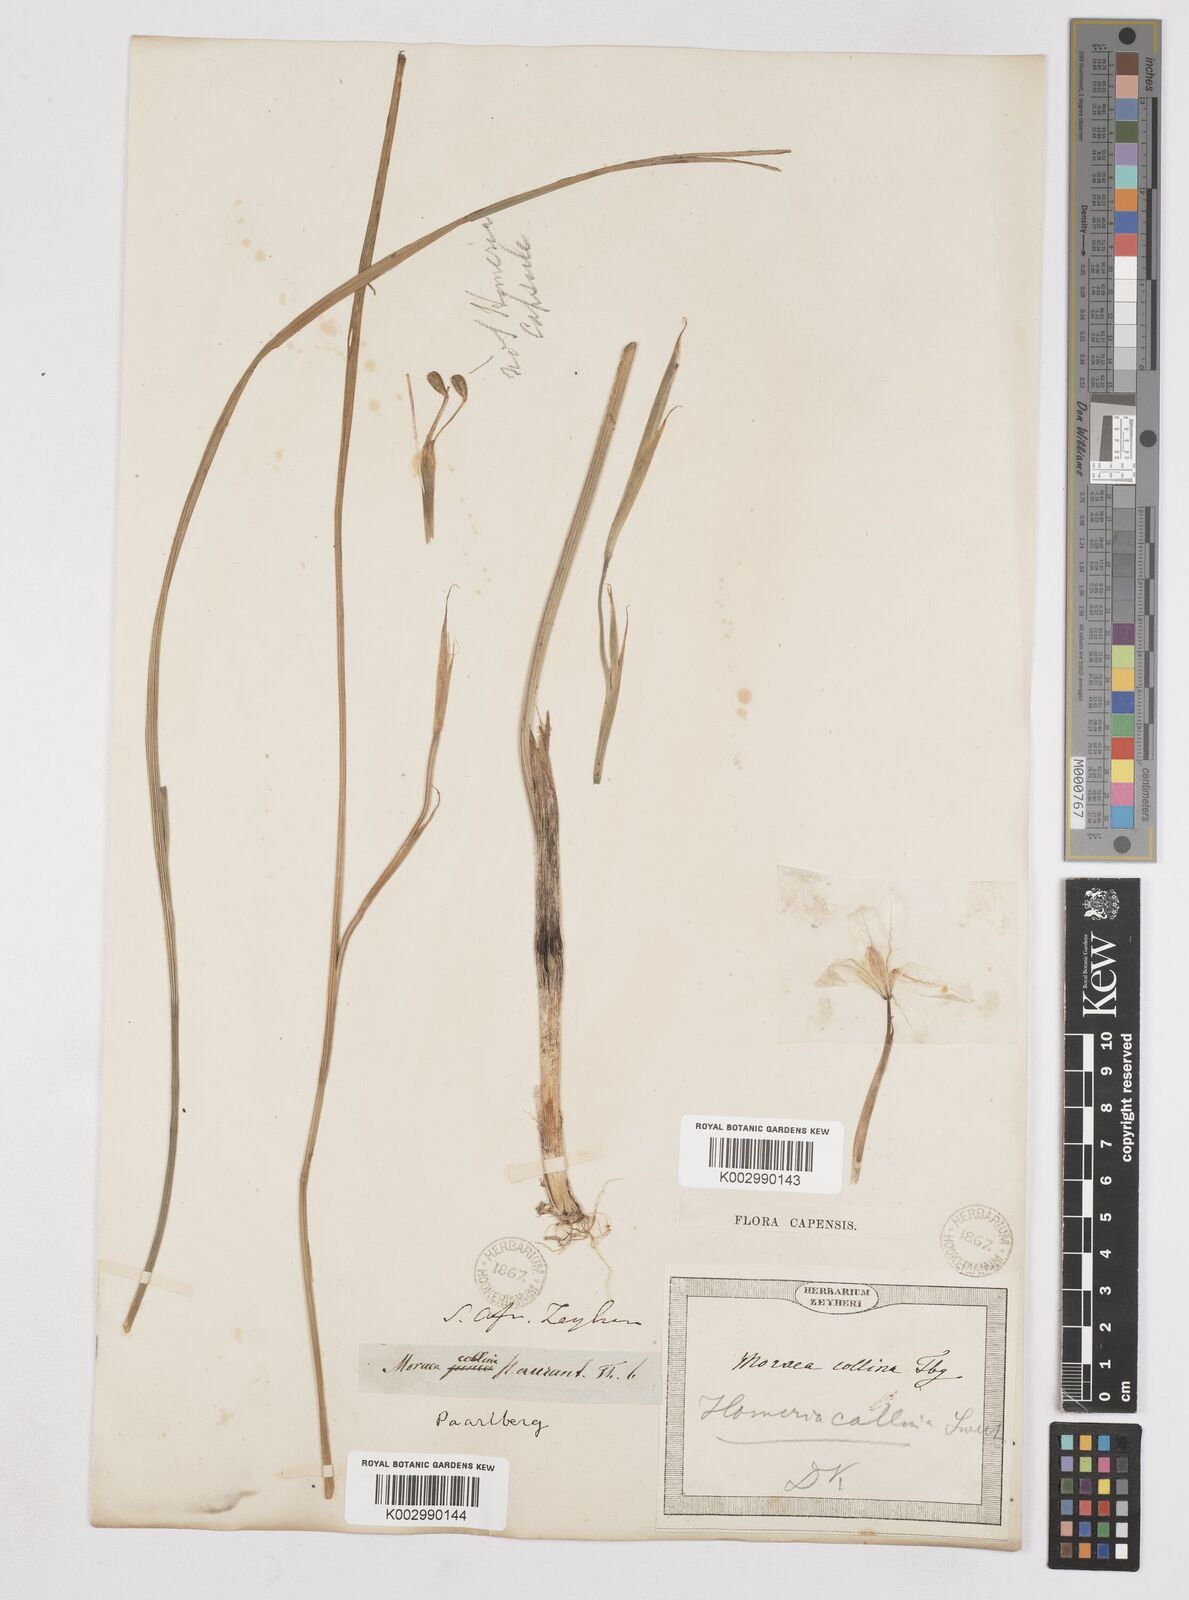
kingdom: Plantae
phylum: Tracheophyta
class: Liliopsida
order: Asparagales
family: Iridaceae
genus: Moraea
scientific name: Moraea collina
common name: Cape-tulip
